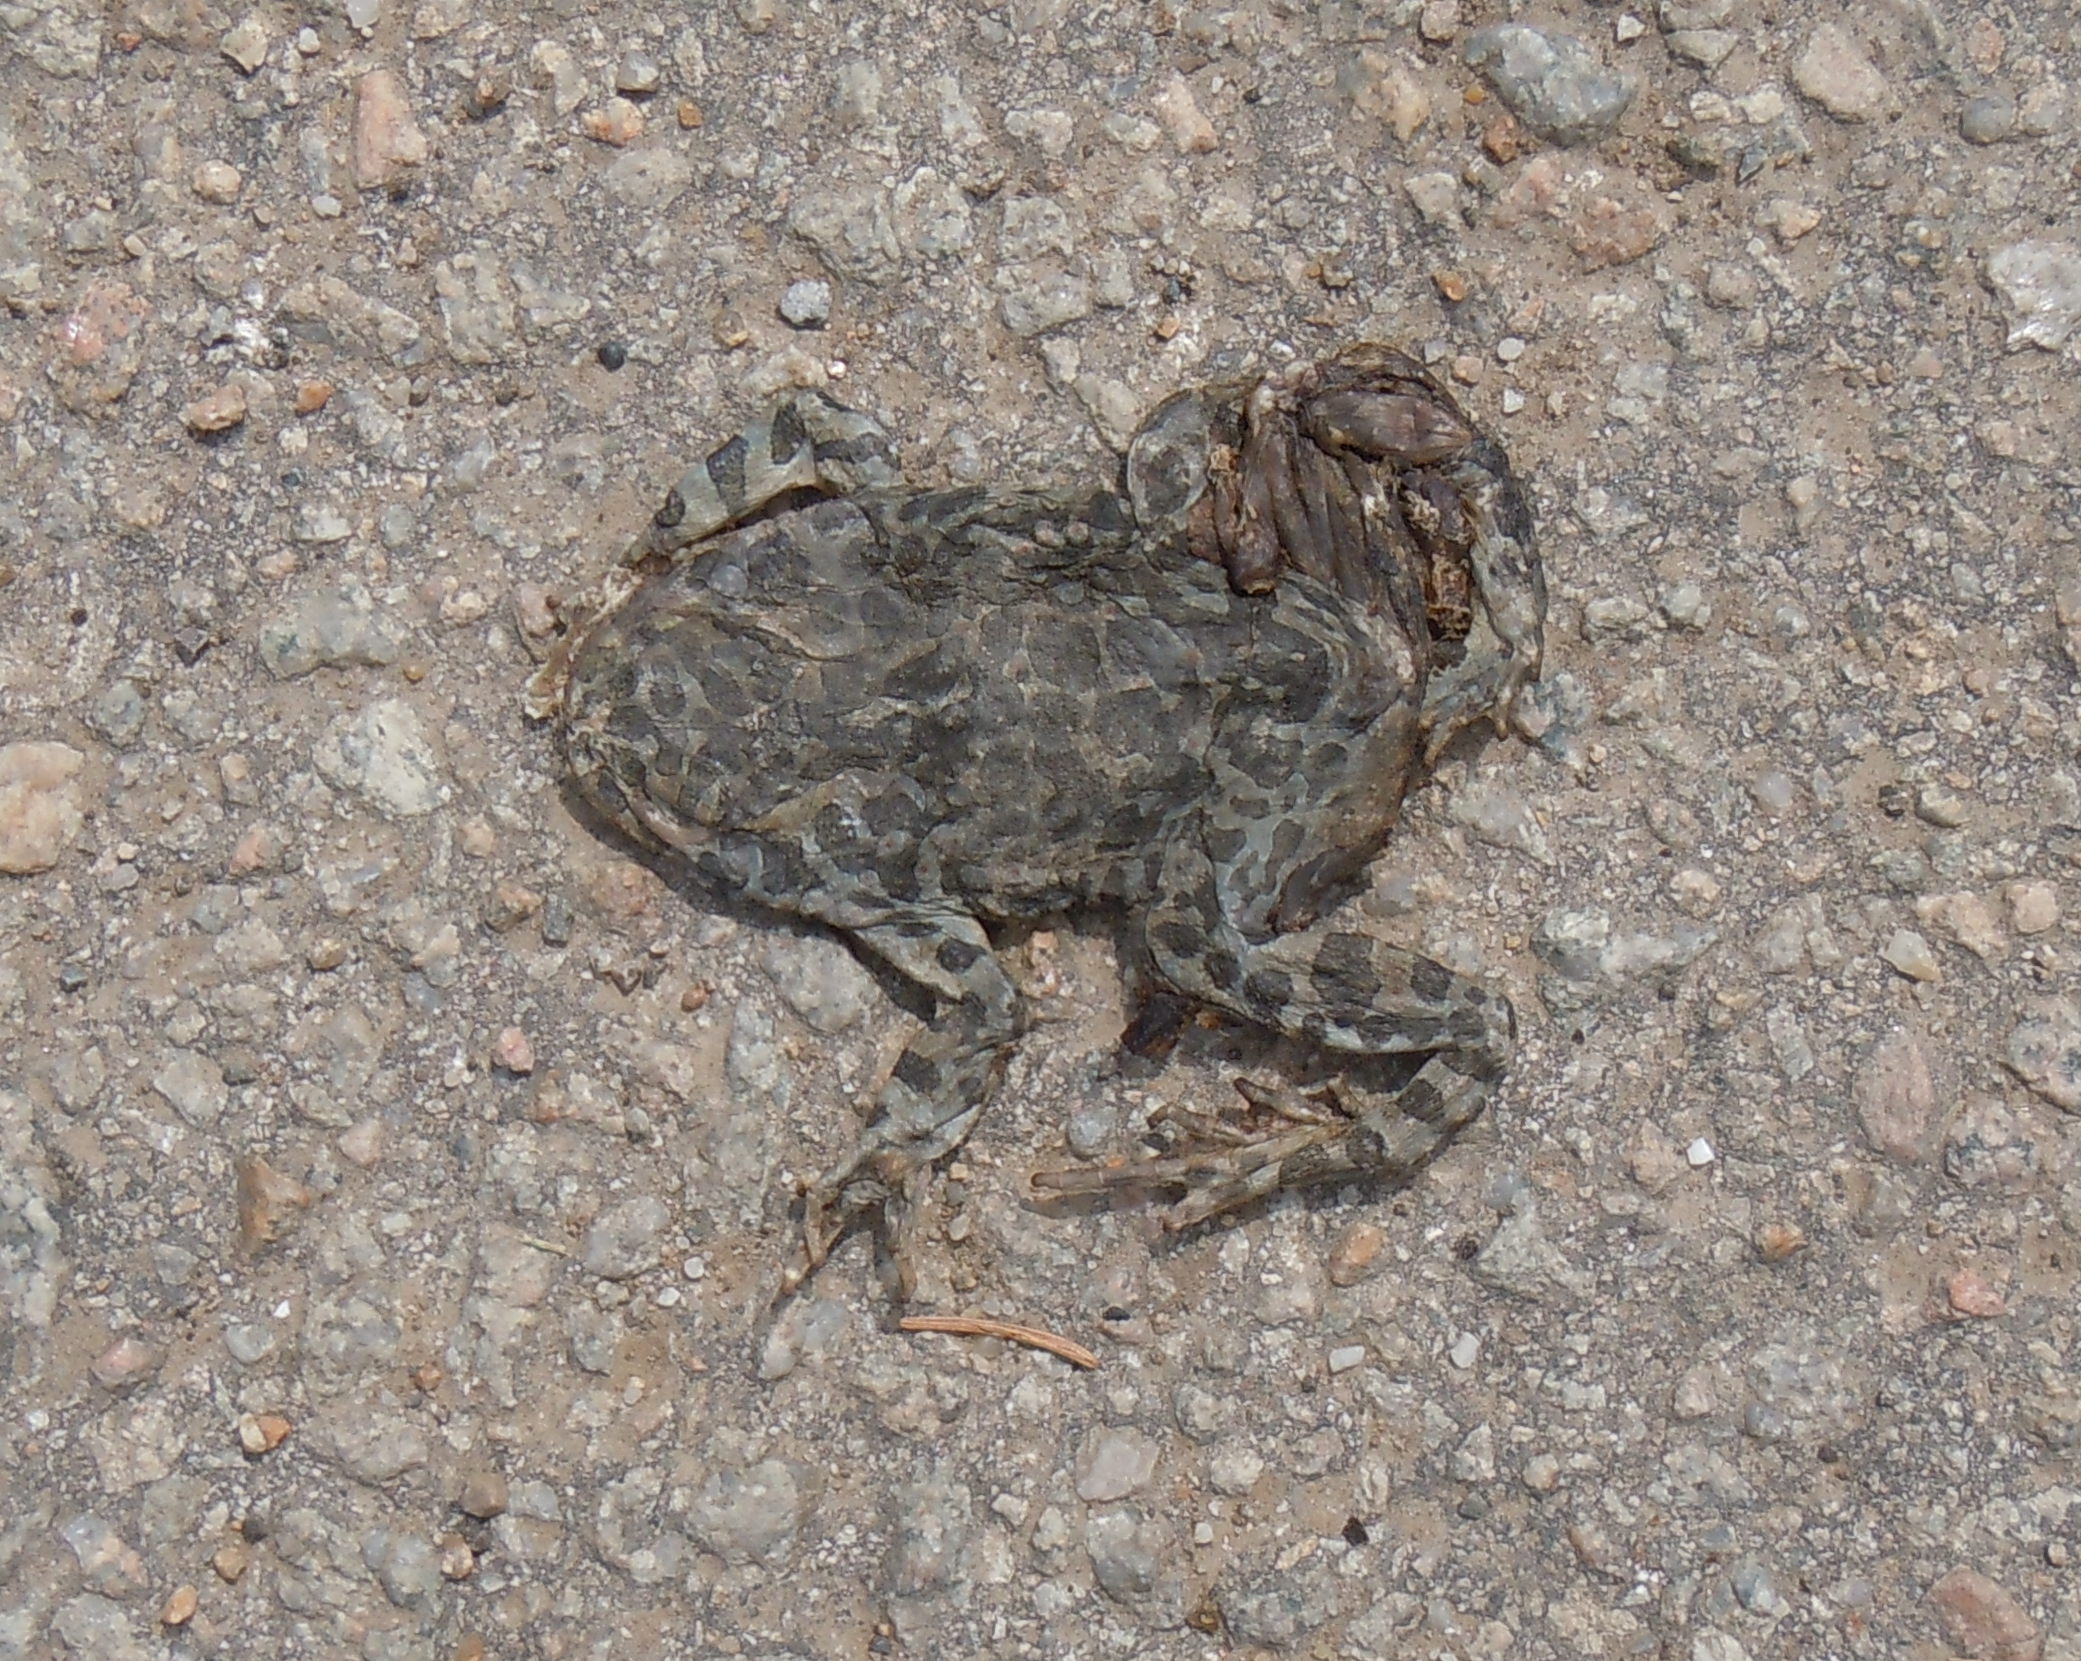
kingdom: Animalia
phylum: Chordata
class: Amphibia
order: Anura
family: Bufonidae
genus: Bufotes
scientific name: Bufotes viridis
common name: European green toad
